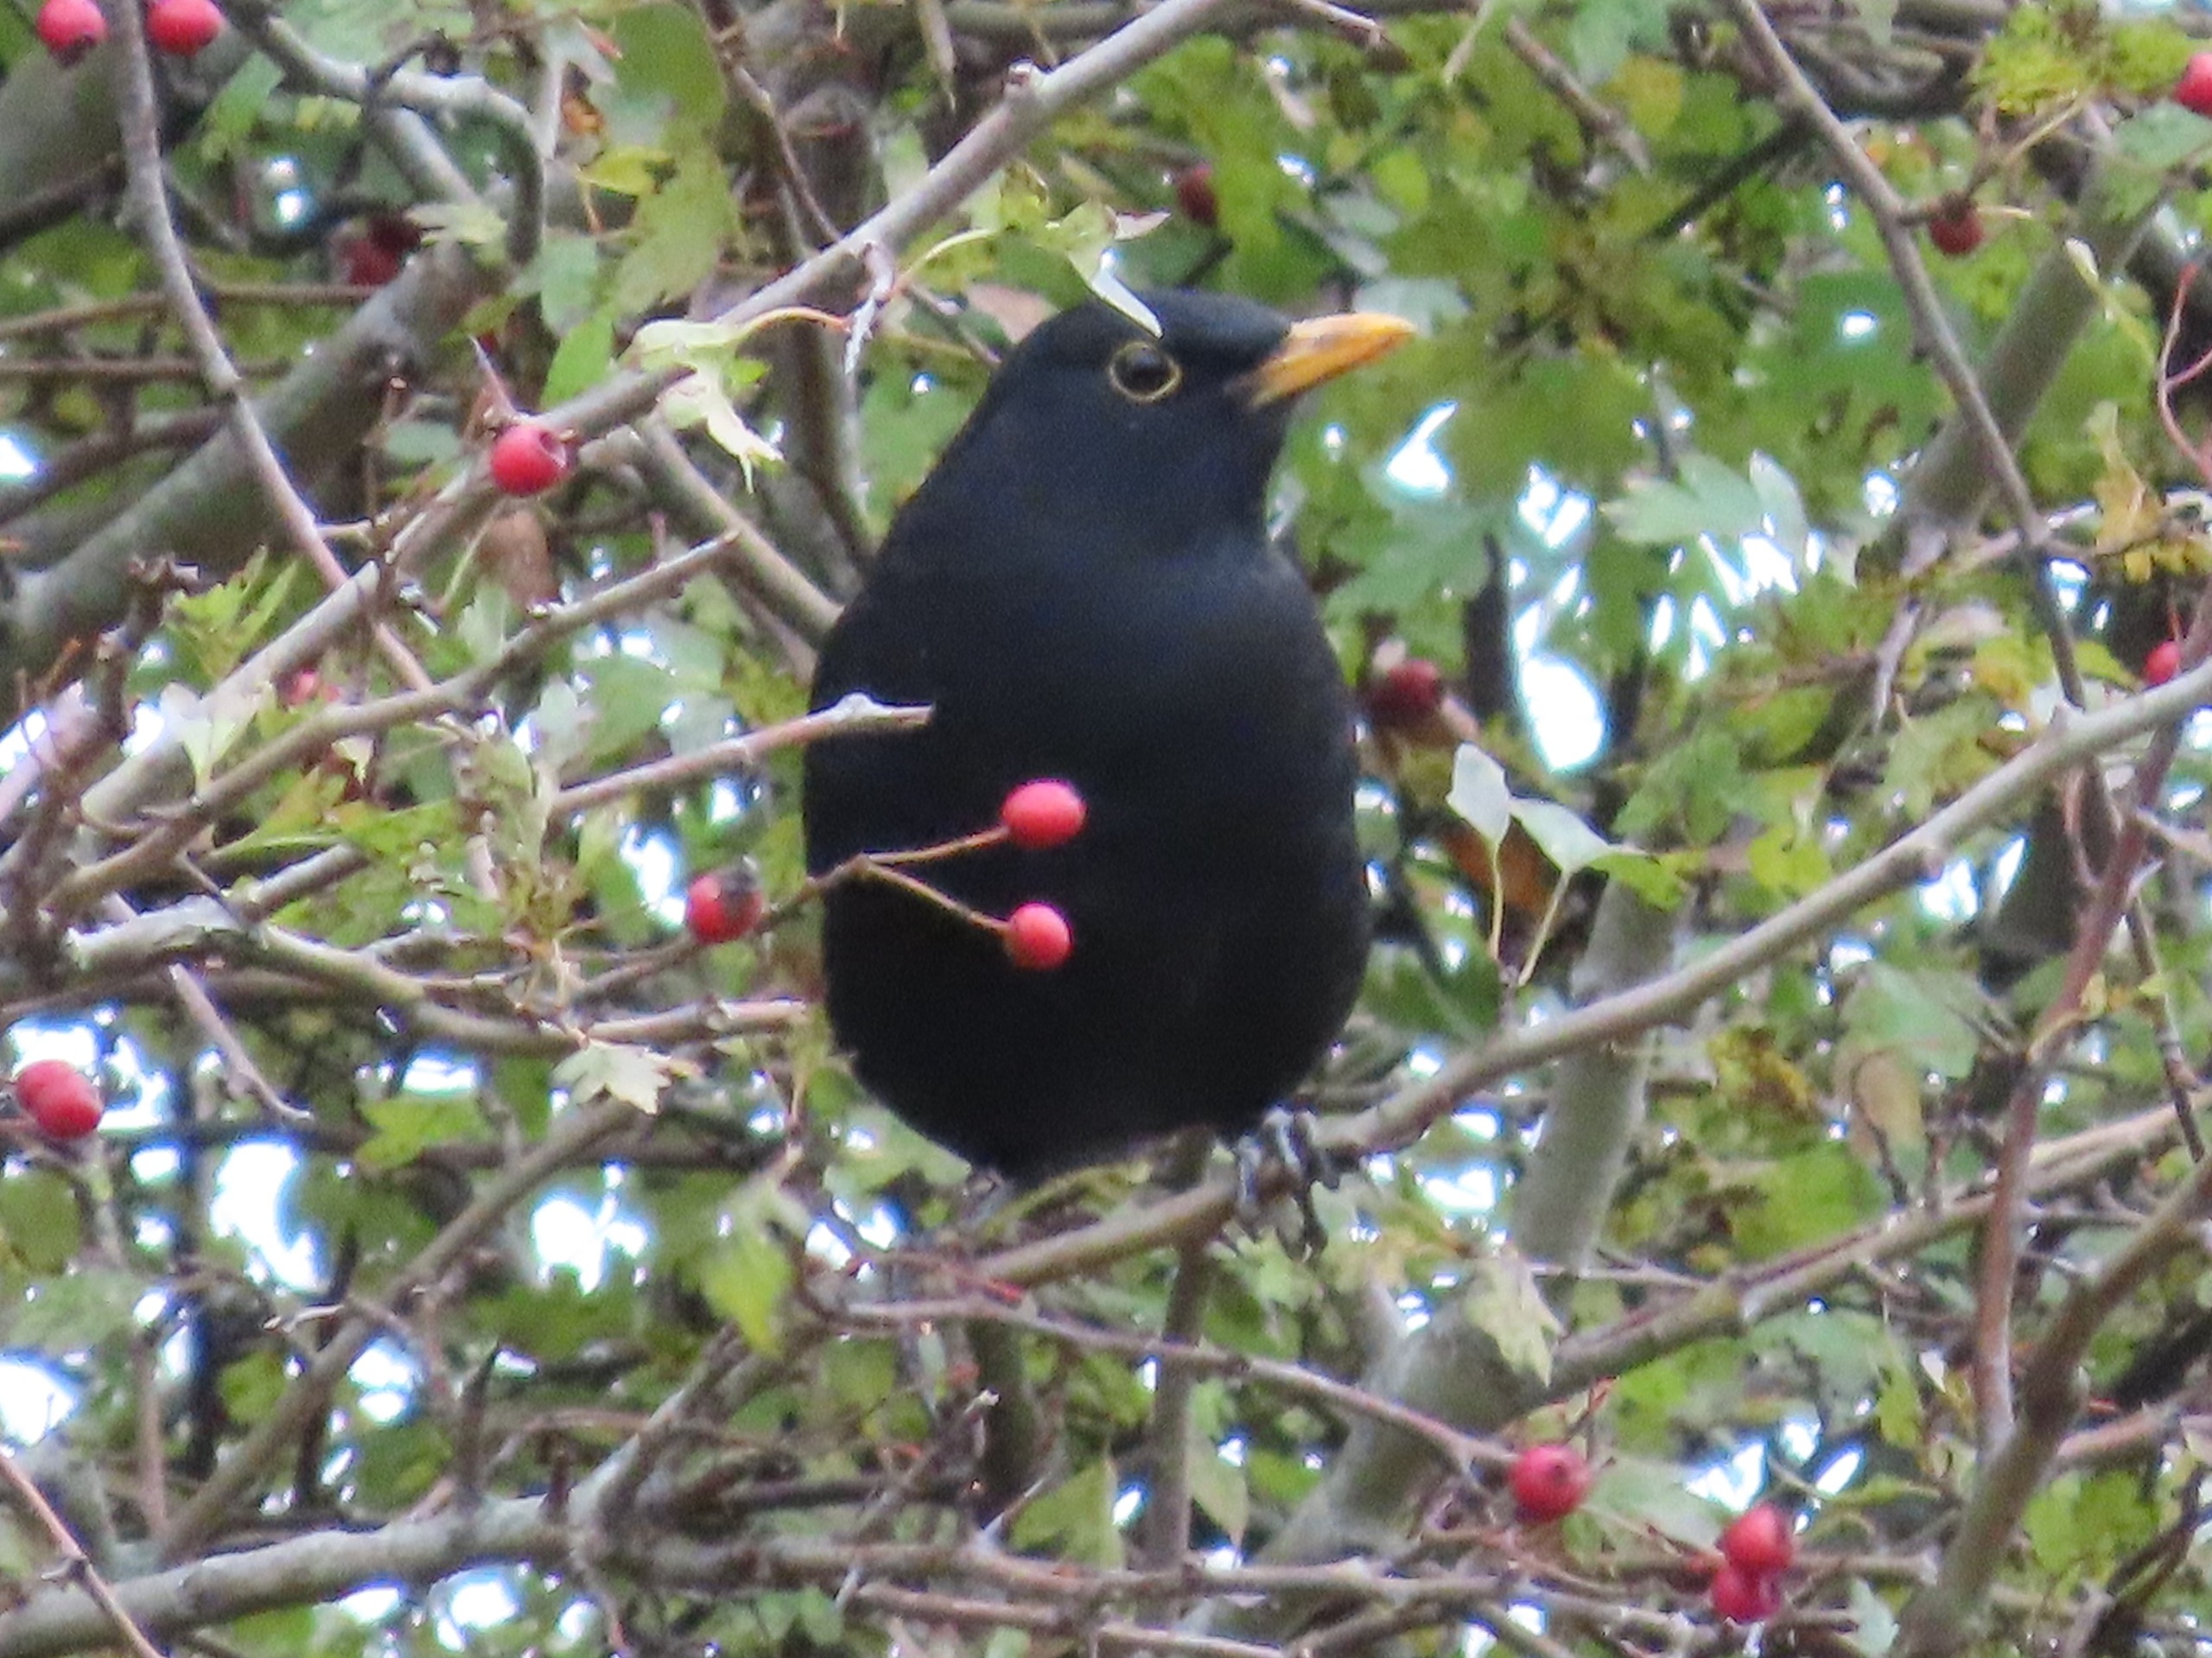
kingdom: Animalia
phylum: Chordata
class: Aves
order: Passeriformes
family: Turdidae
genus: Turdus
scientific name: Turdus merula
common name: Solsort
